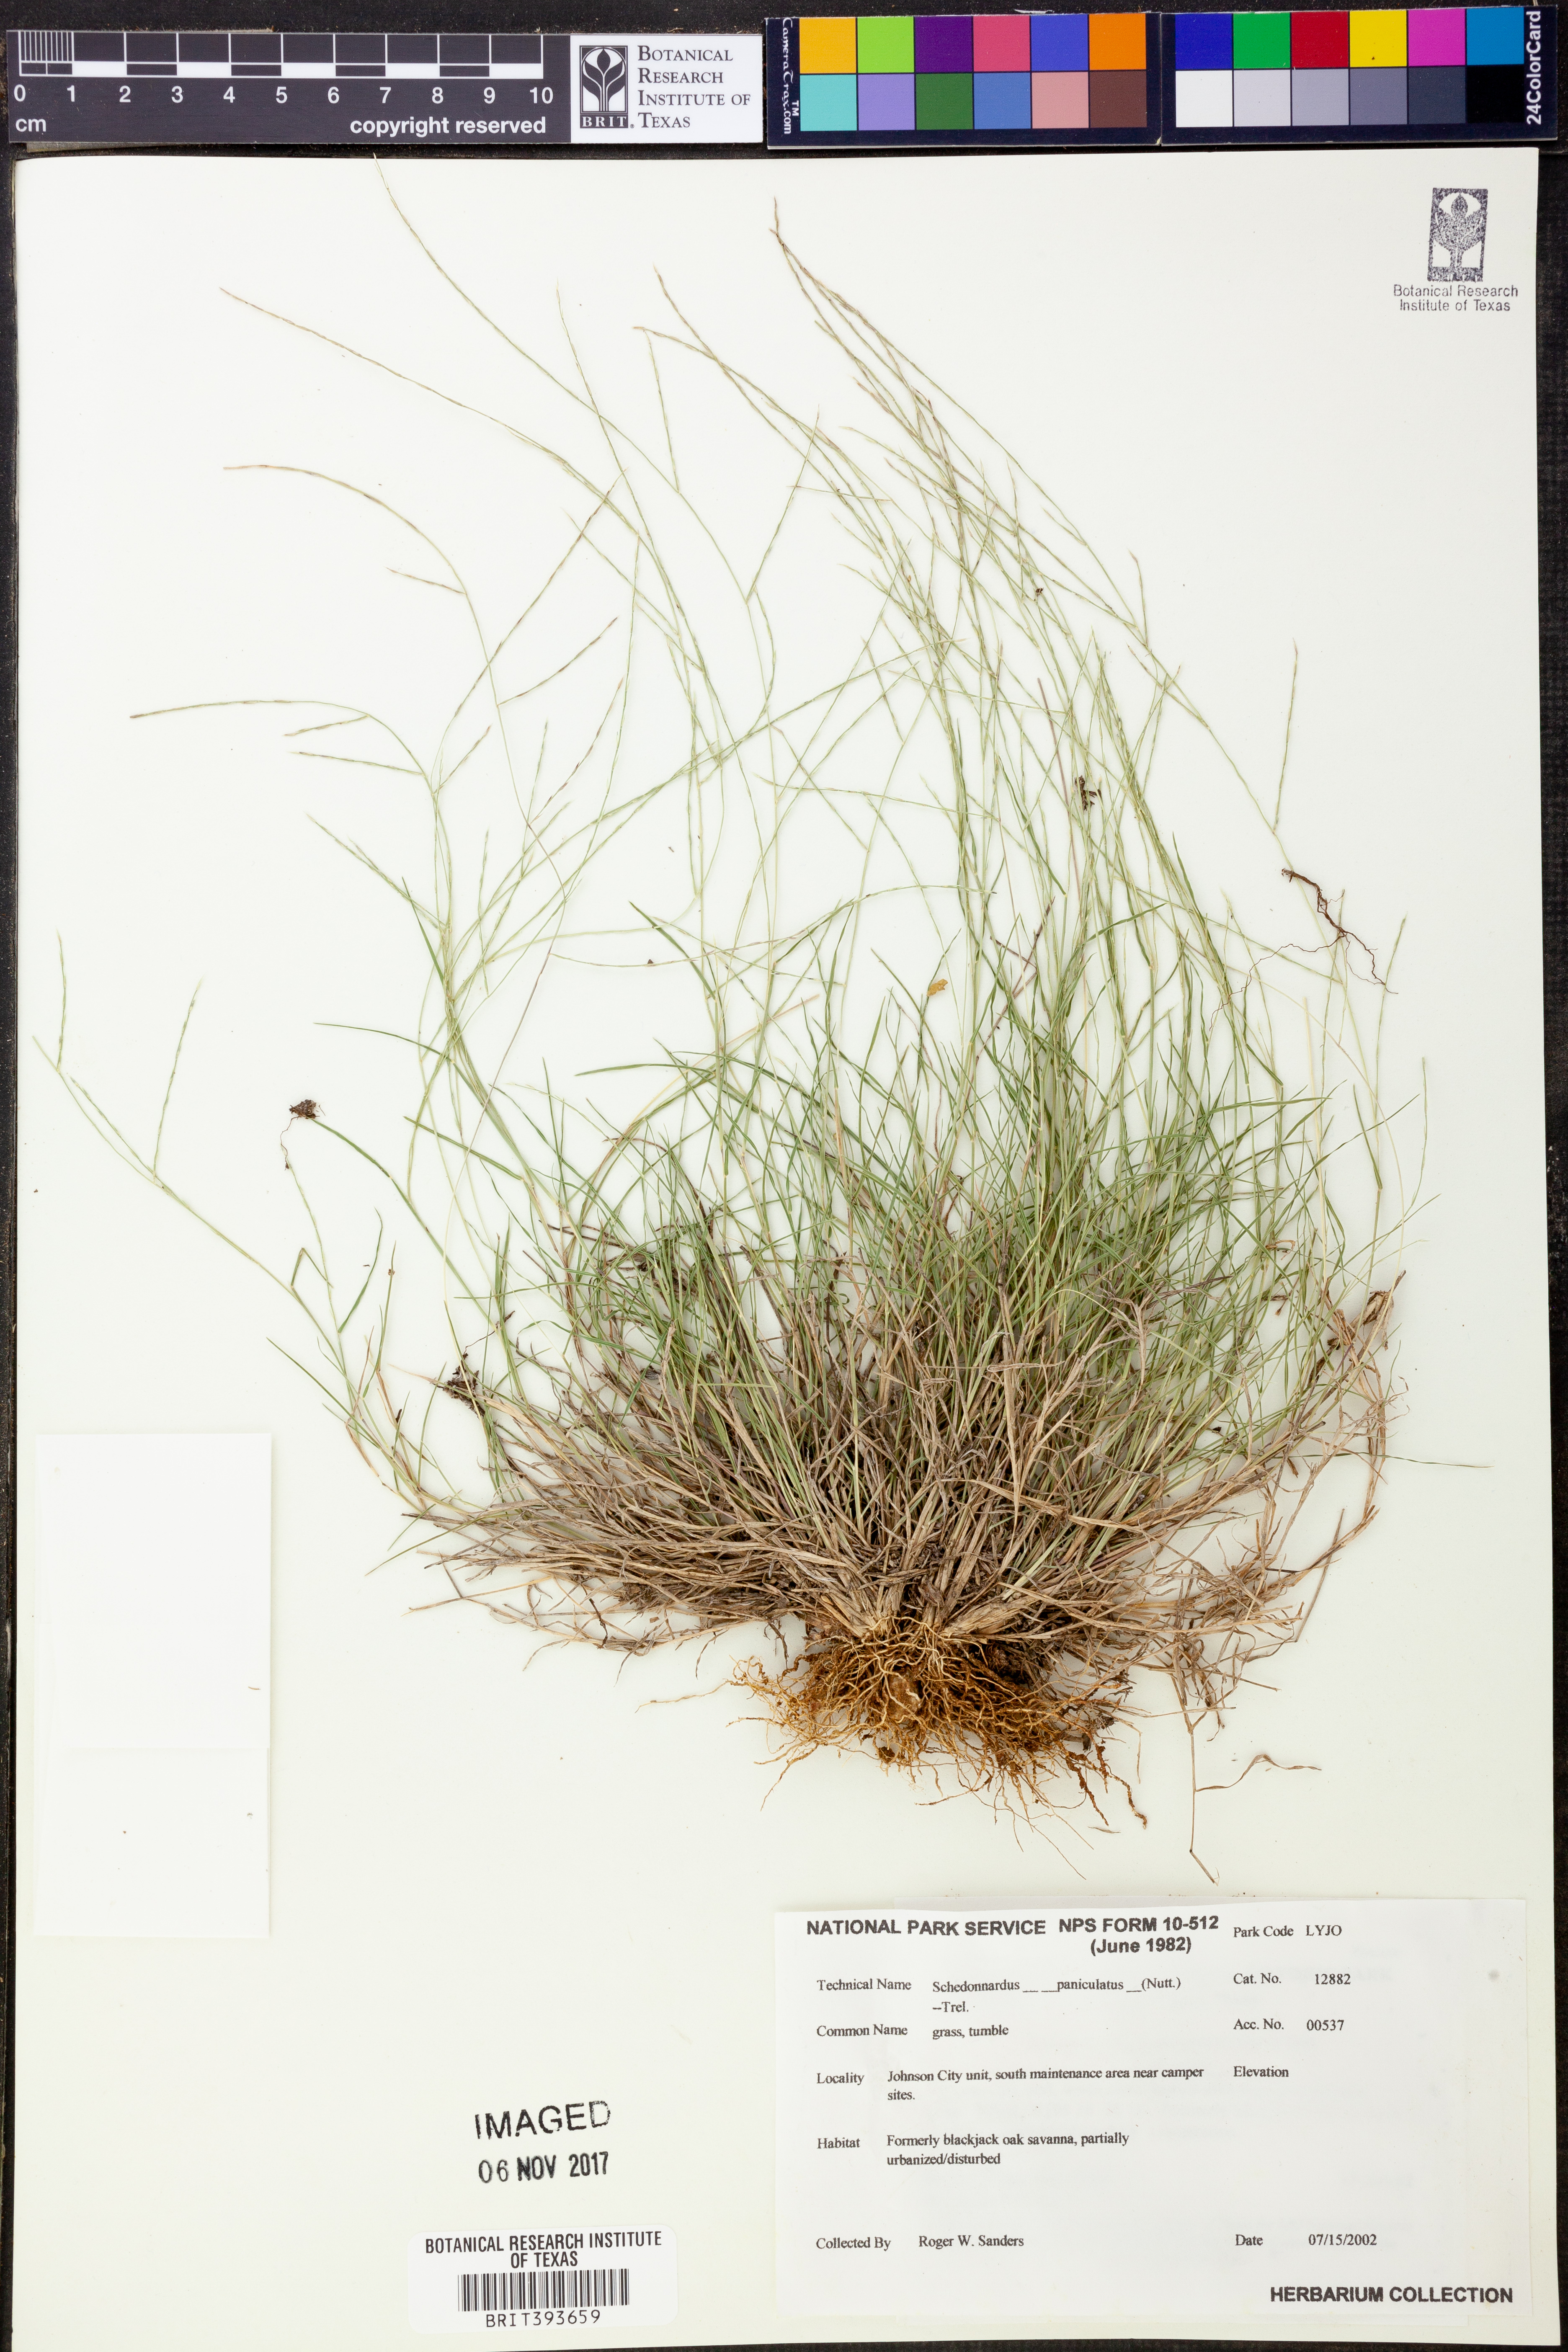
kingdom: Plantae
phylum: Tracheophyta
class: Liliopsida
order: Poales
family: Poaceae
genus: Muhlenbergia
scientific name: Muhlenbergia paniculata
